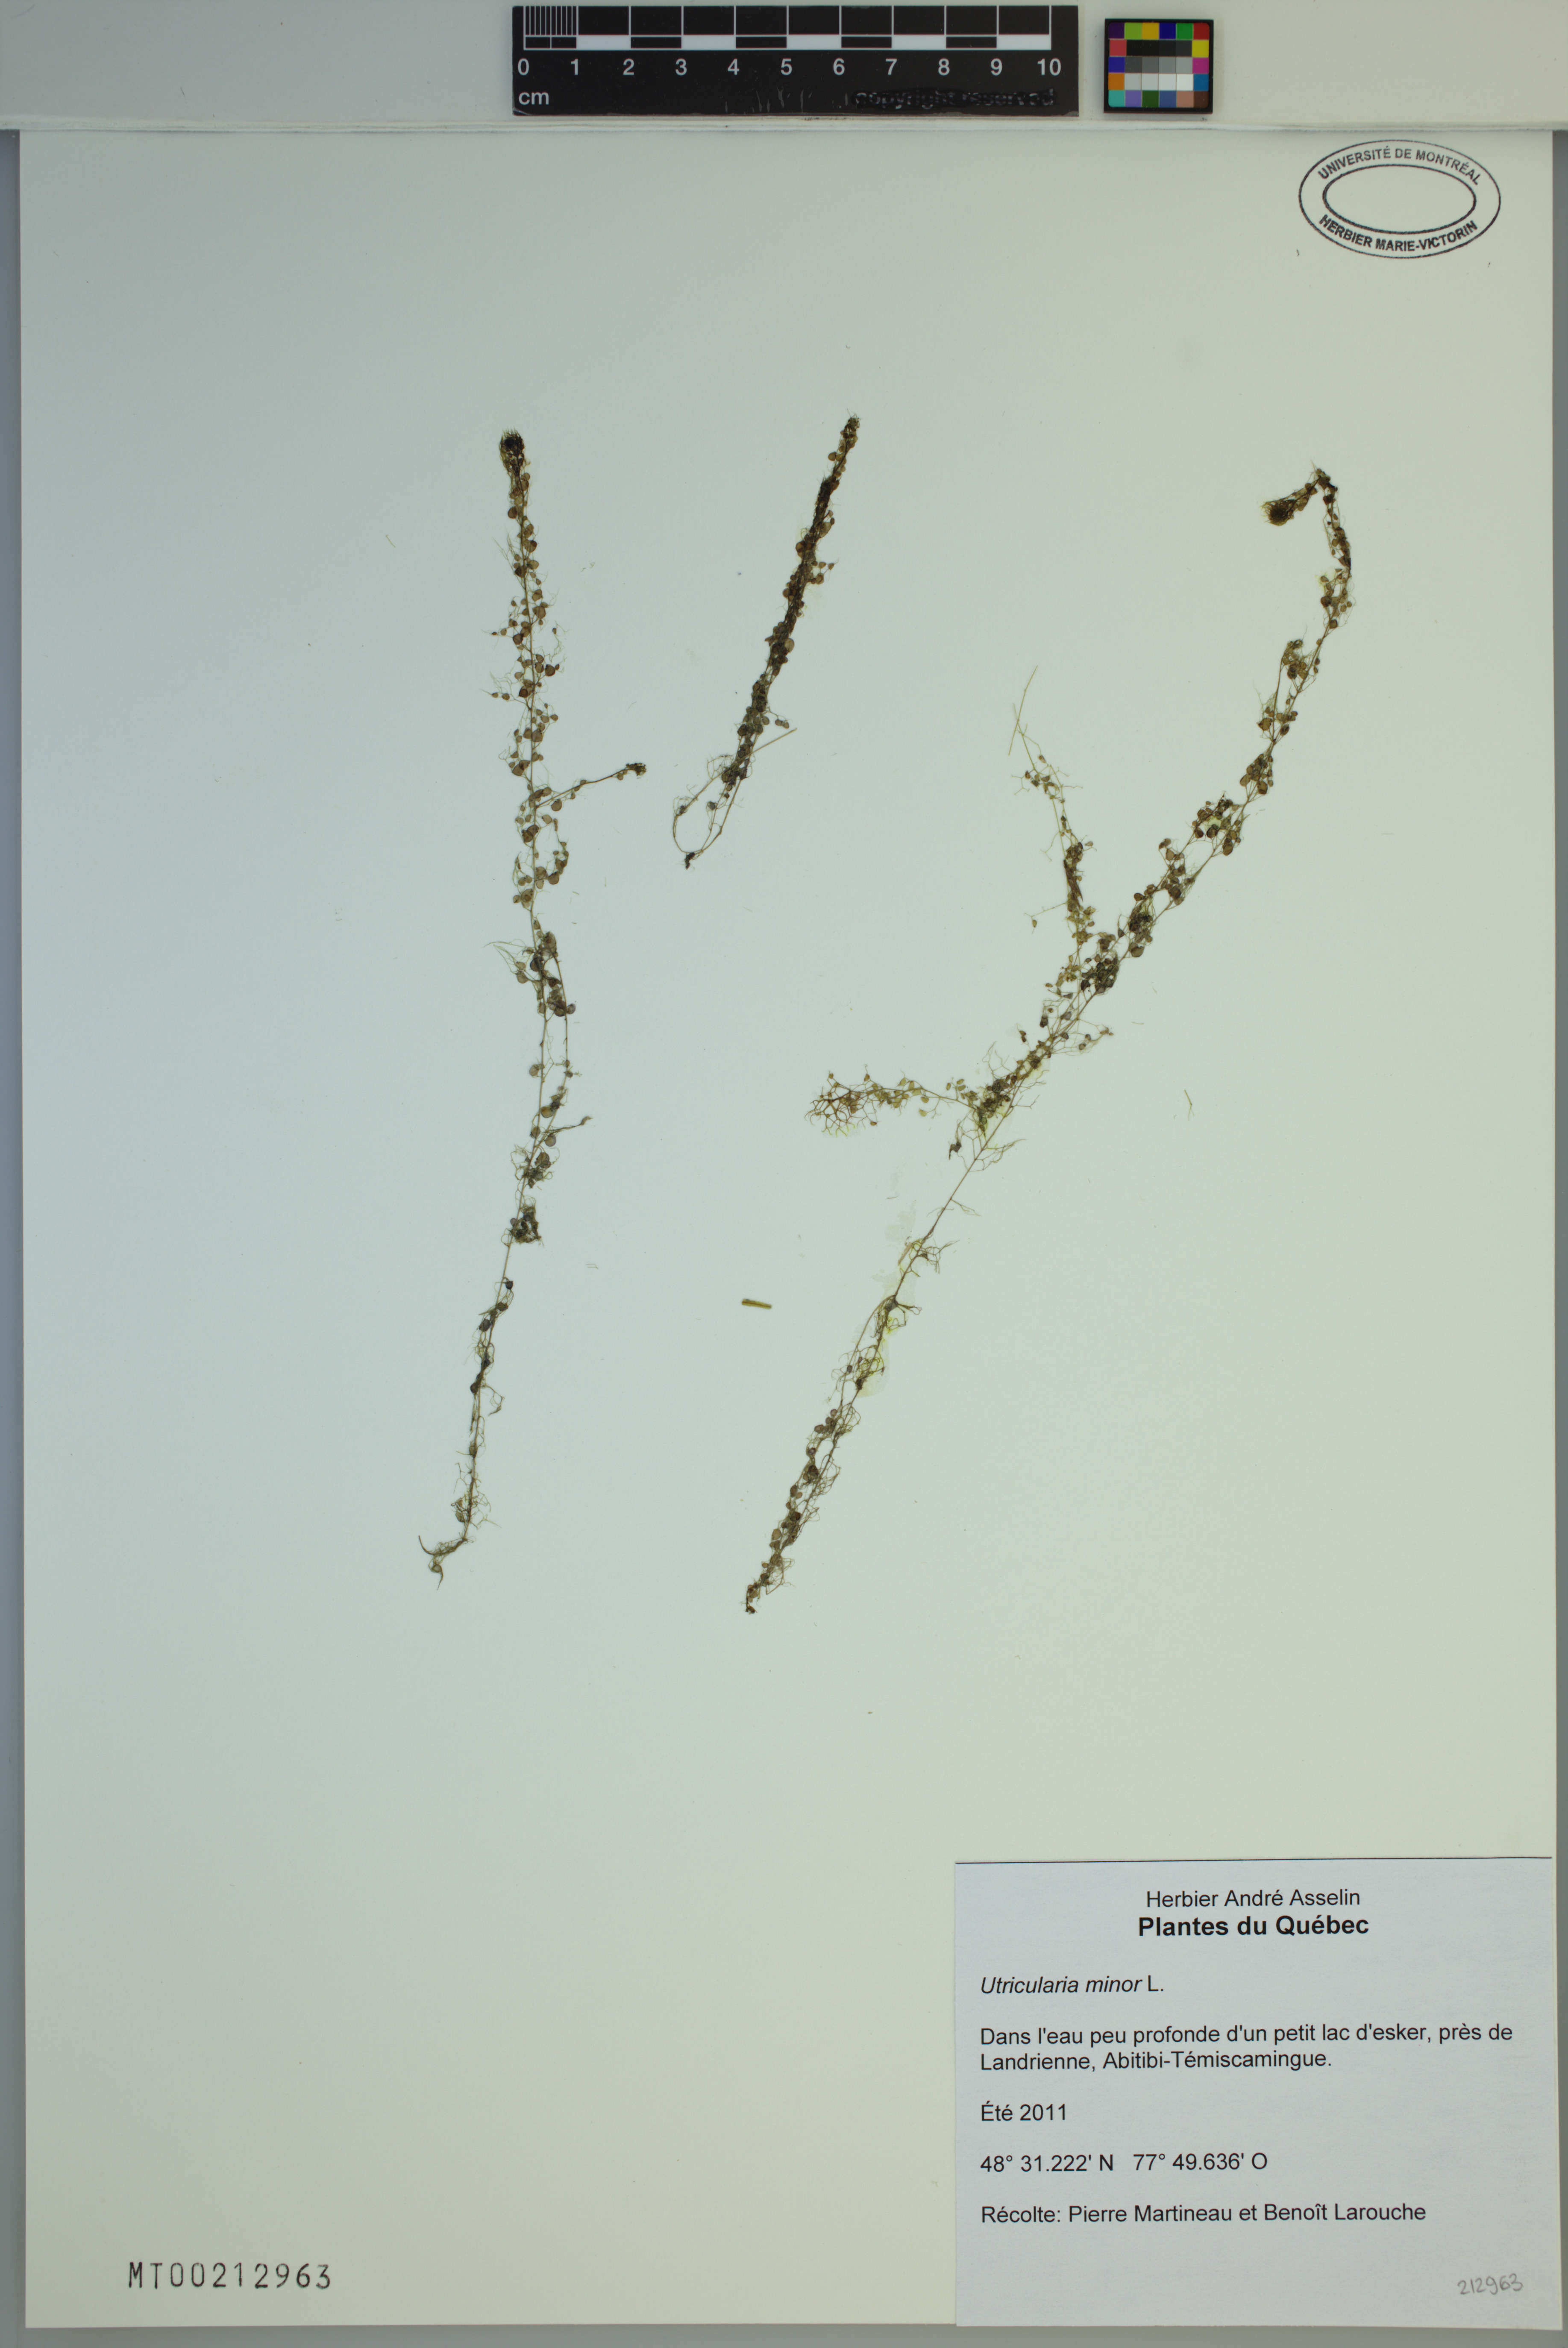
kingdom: Plantae
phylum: Tracheophyta
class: Magnoliopsida
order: Lamiales
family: Lentibulariaceae
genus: Utricularia
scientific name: Utricularia minor
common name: Lesser bladderwort
